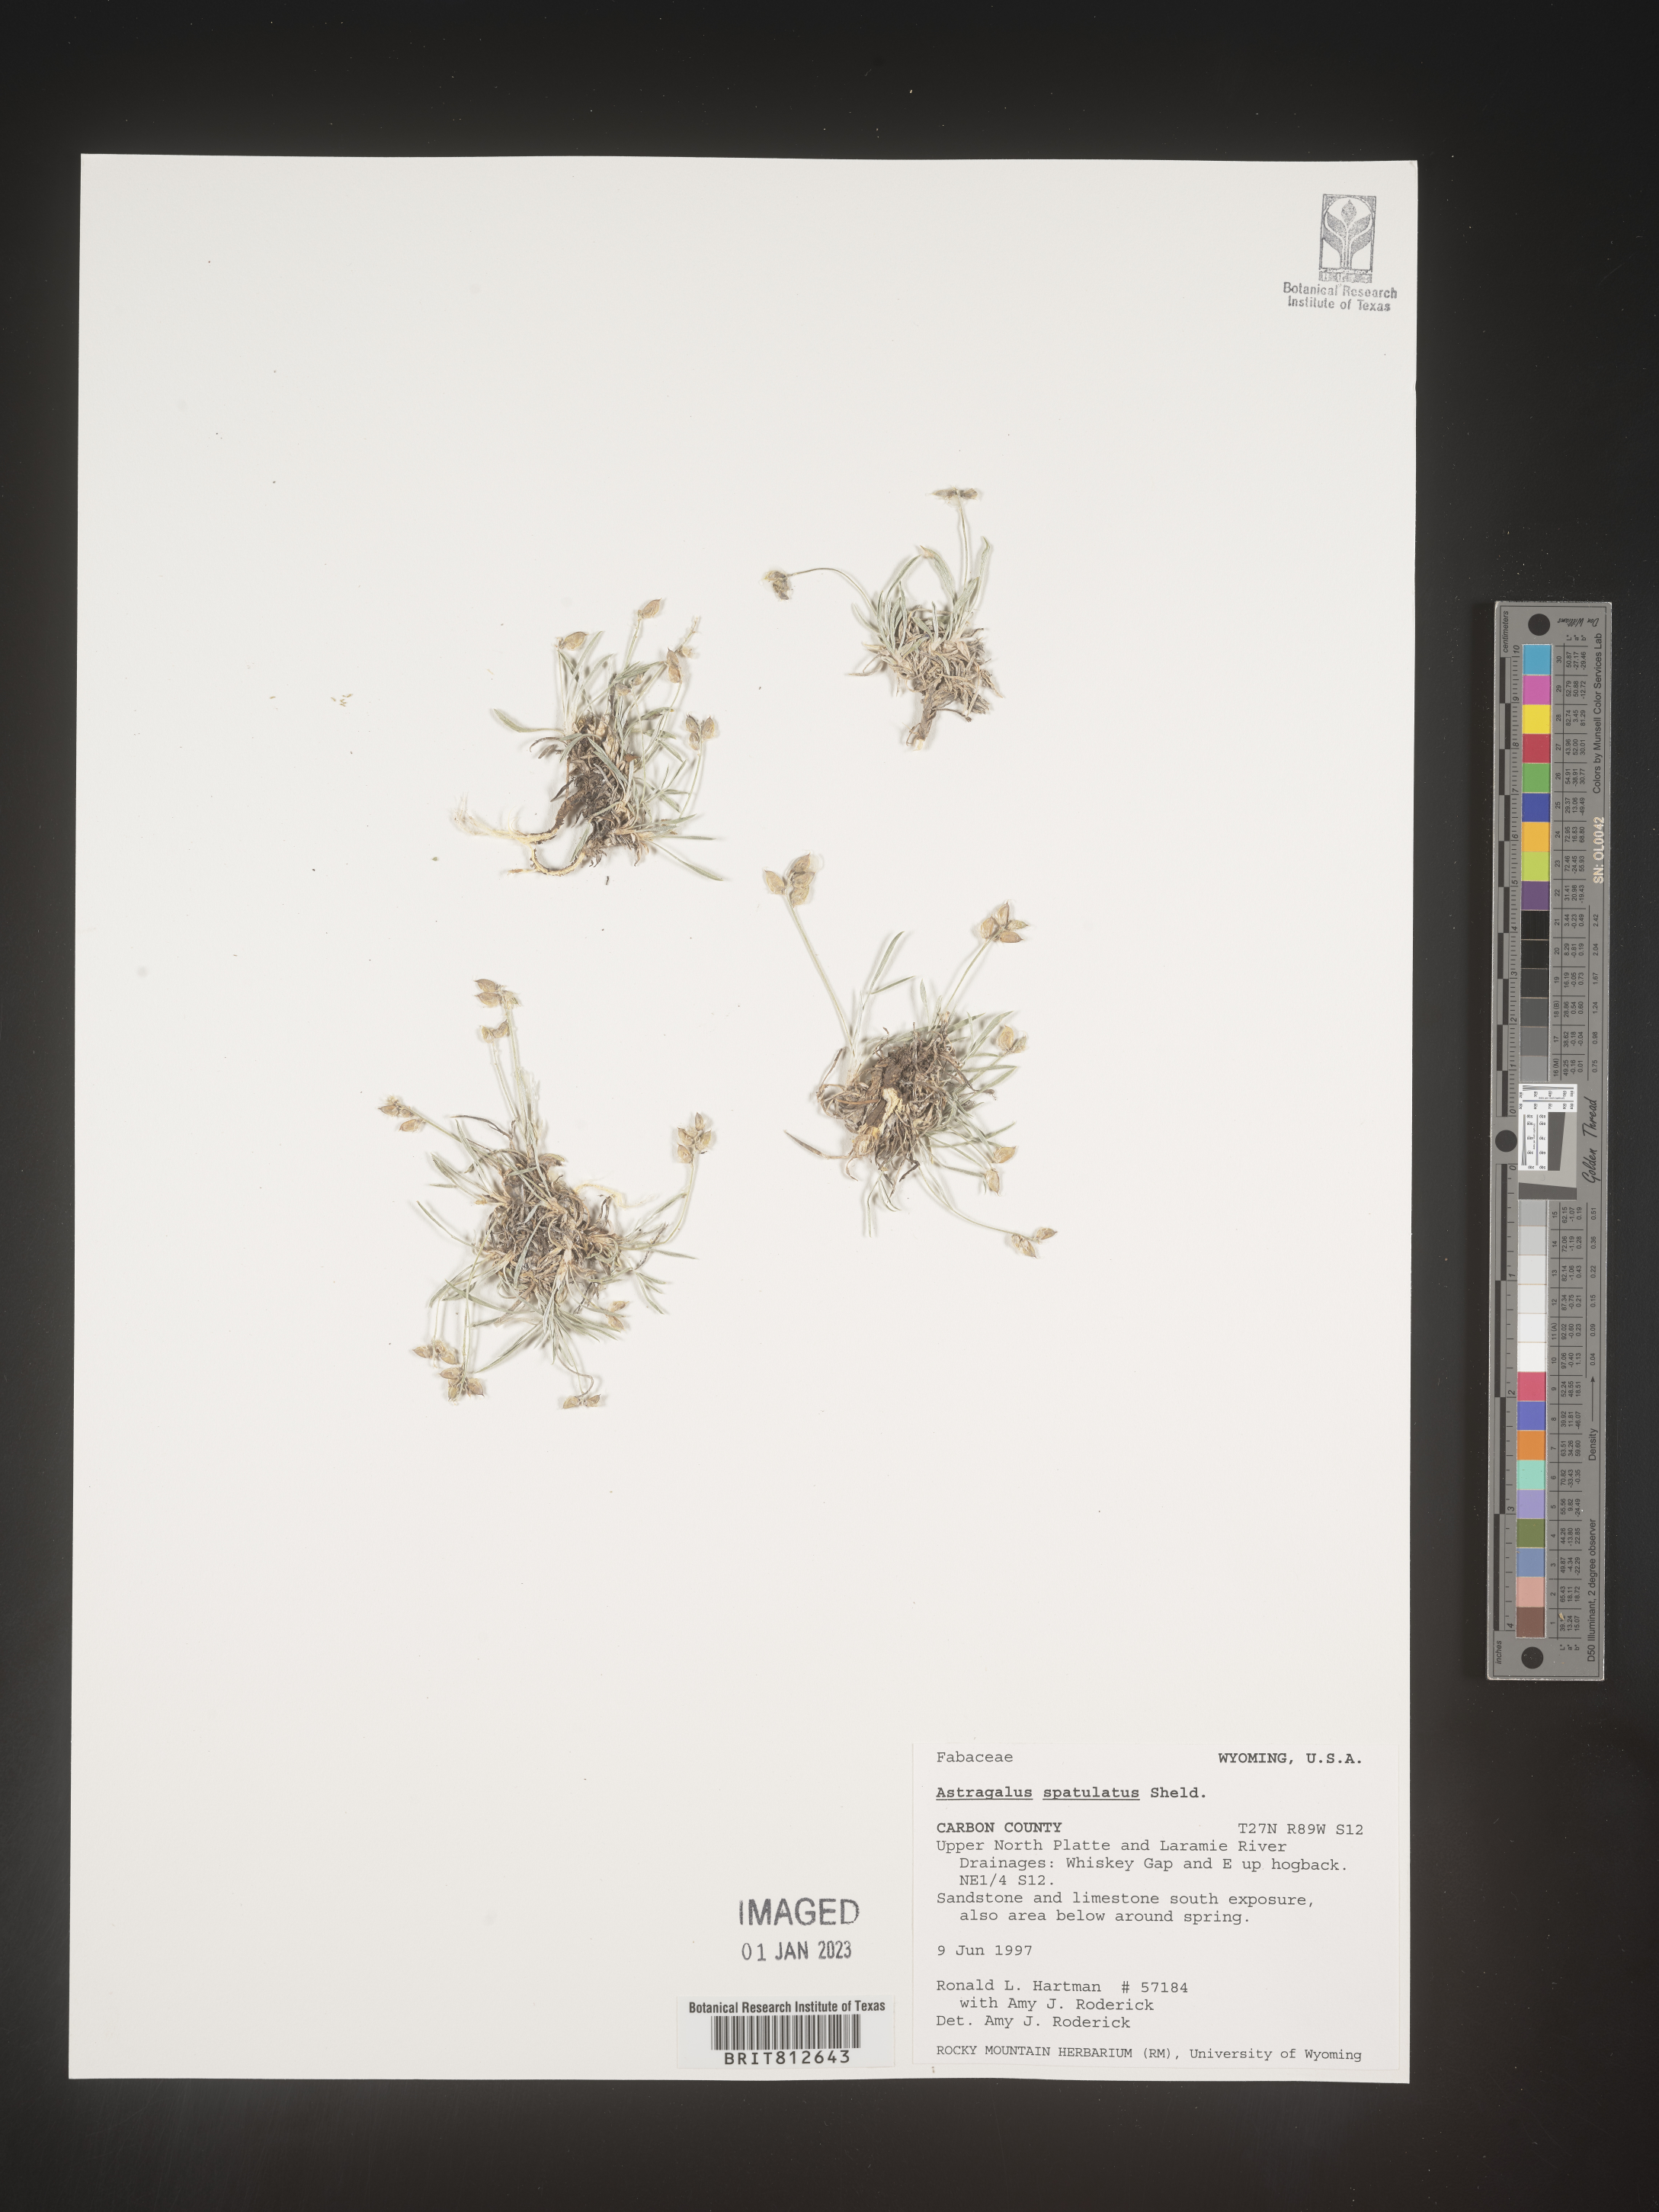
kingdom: Plantae
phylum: Tracheophyta
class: Magnoliopsida
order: Fabales
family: Fabaceae
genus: Astragalus
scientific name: Astragalus
